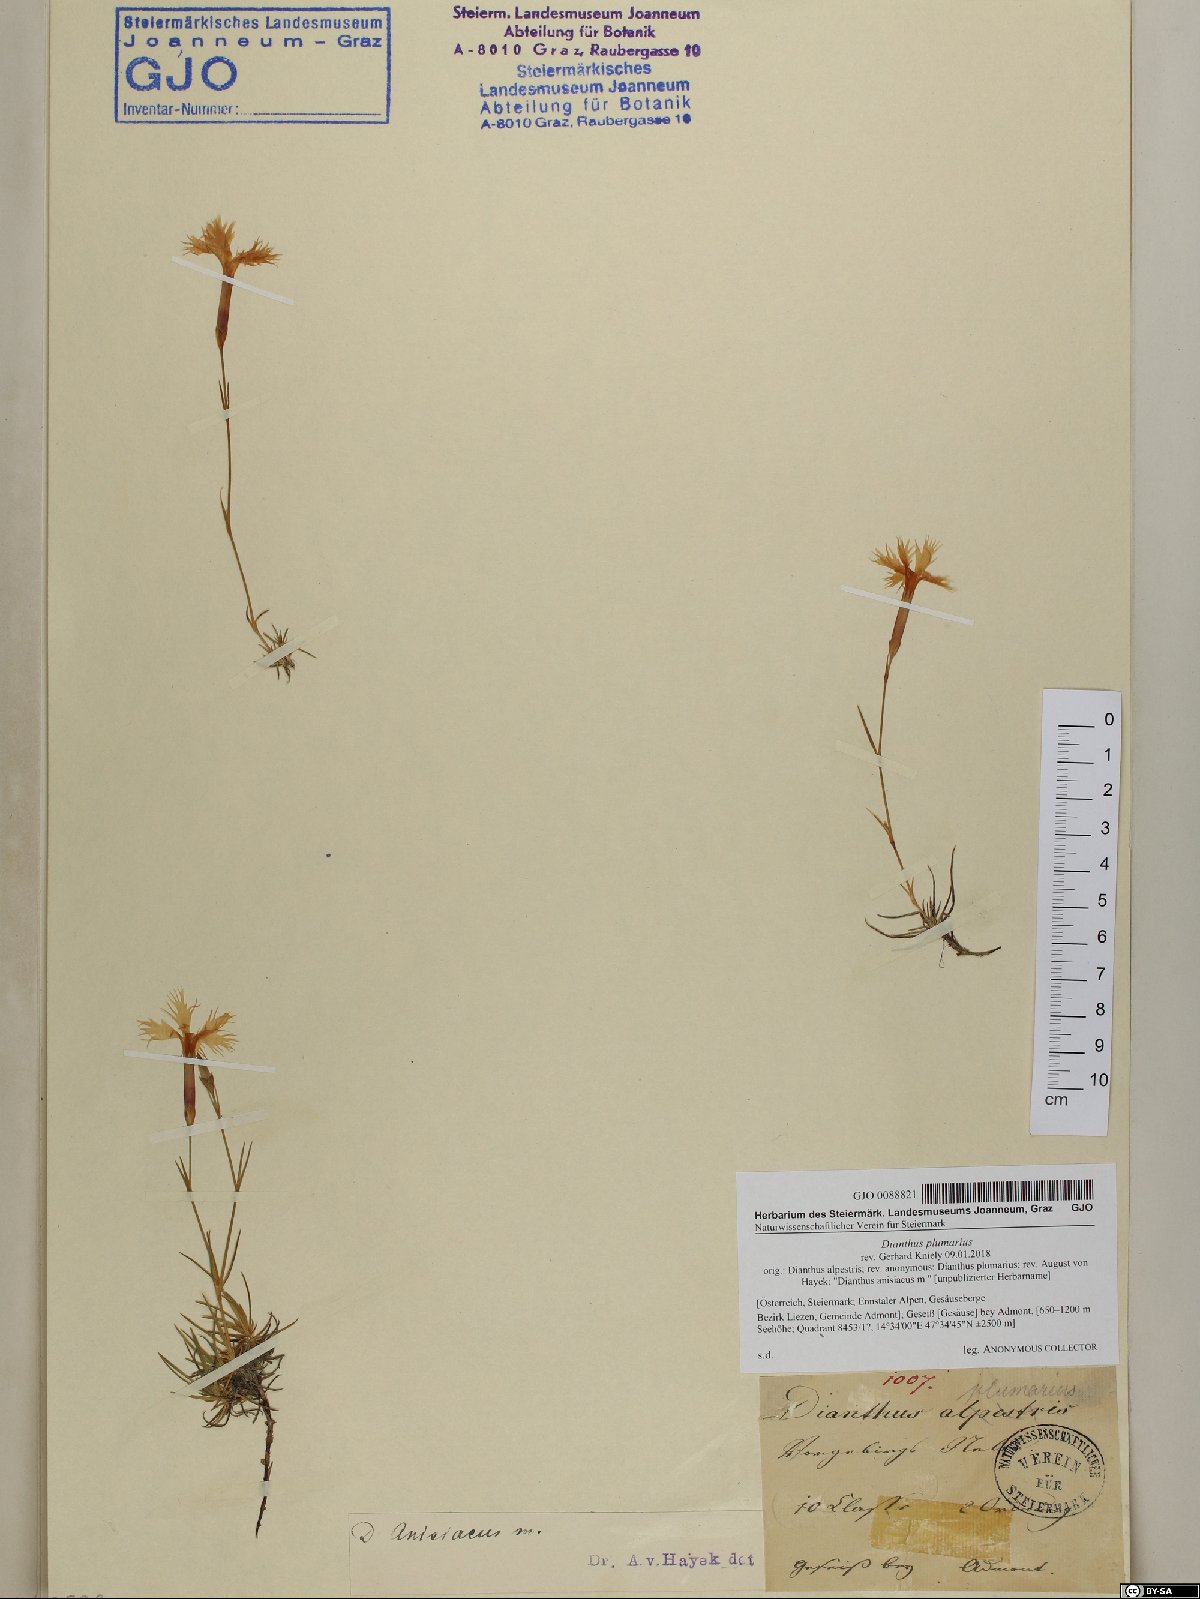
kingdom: Plantae
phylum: Tracheophyta
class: Magnoliopsida
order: Caryophyllales
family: Caryophyllaceae
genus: Dianthus
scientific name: Dianthus plumarius
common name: Pink
